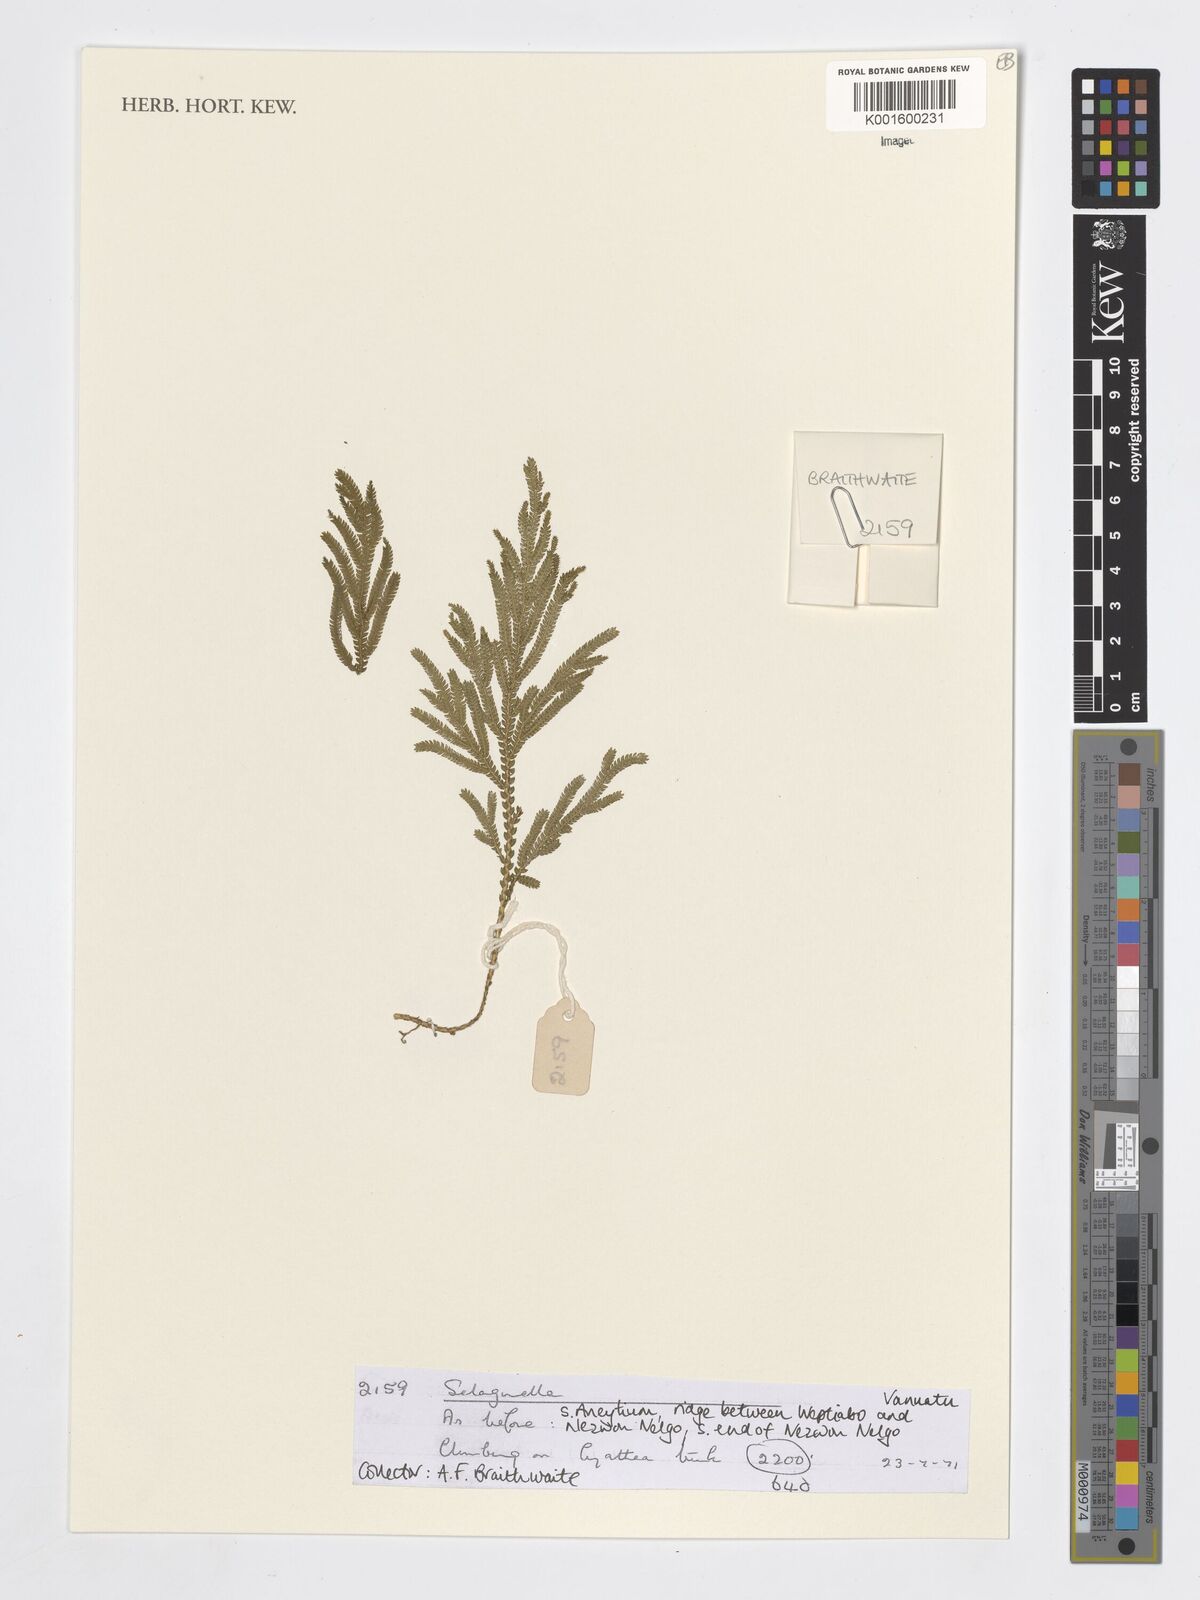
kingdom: Plantae
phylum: Tracheophyta
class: Lycopodiopsida
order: Selaginellales
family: Selaginellaceae
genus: Selaginella
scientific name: Selaginella
